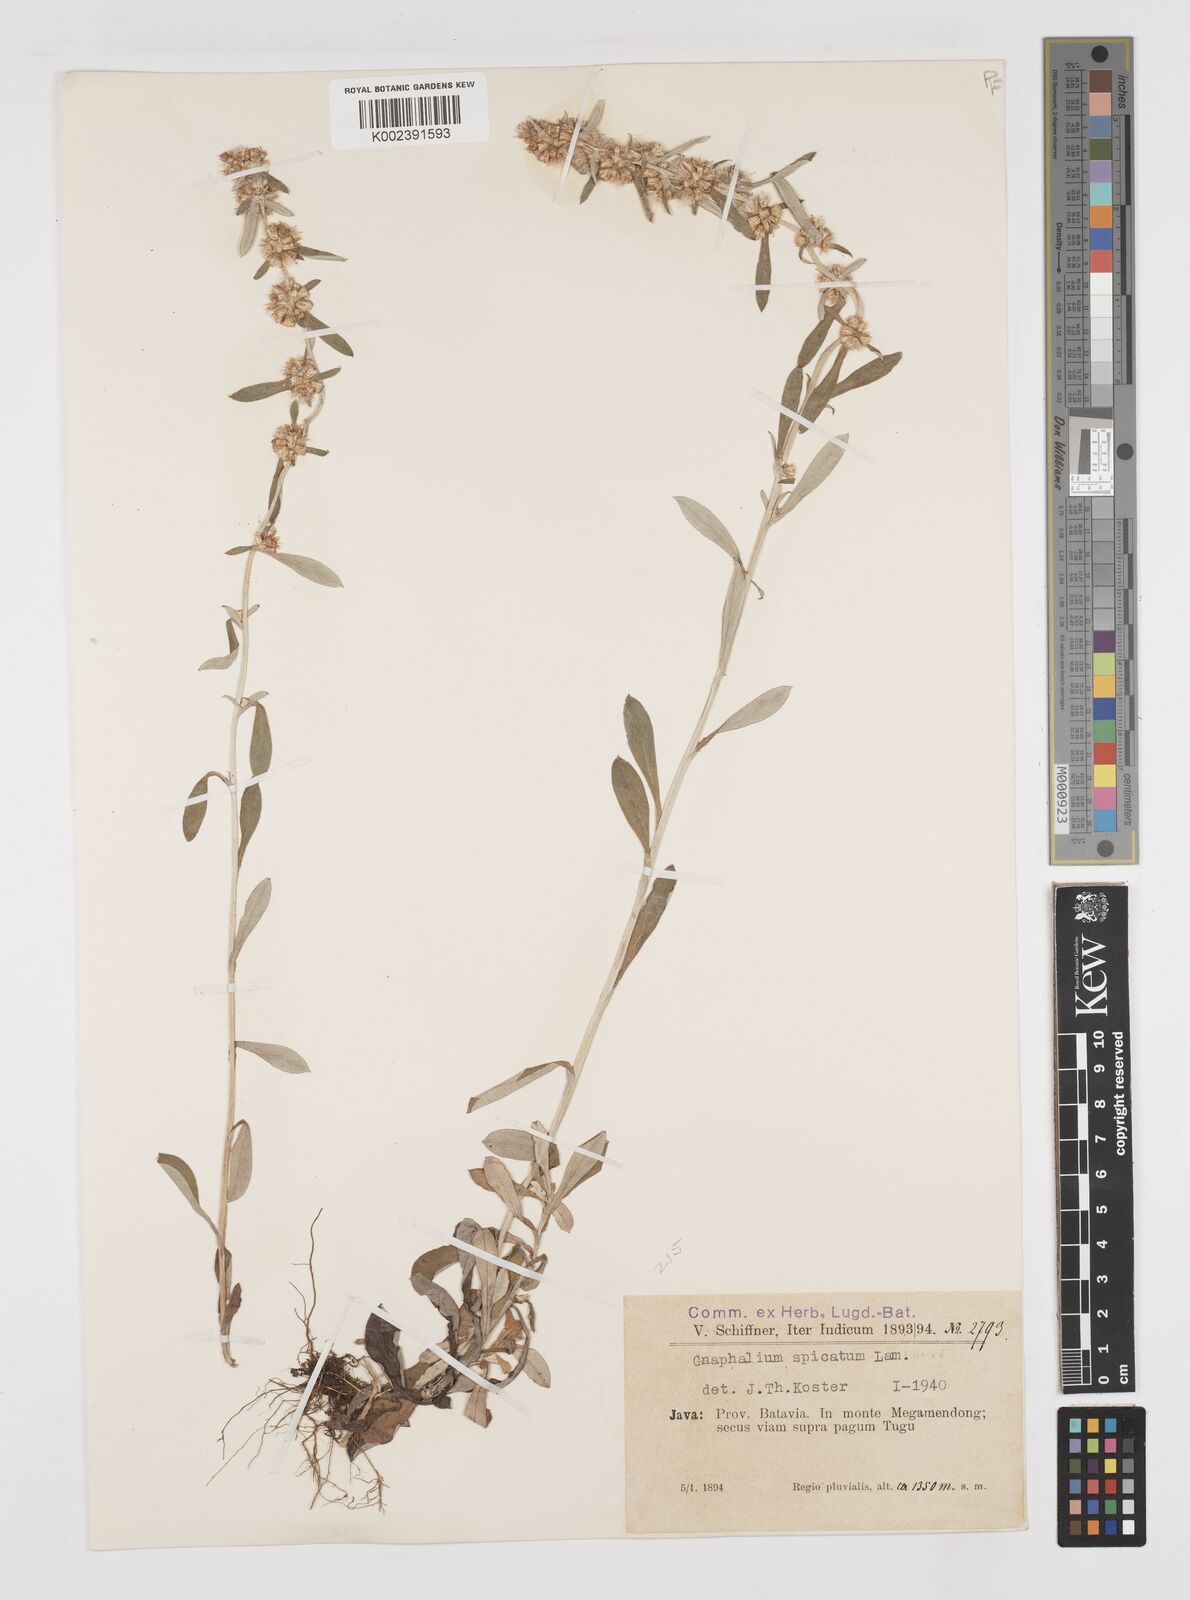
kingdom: Plantae
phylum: Tracheophyta
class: Magnoliopsida
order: Asterales
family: Asteraceae
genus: Gamochaeta
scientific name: Gamochaeta americana
